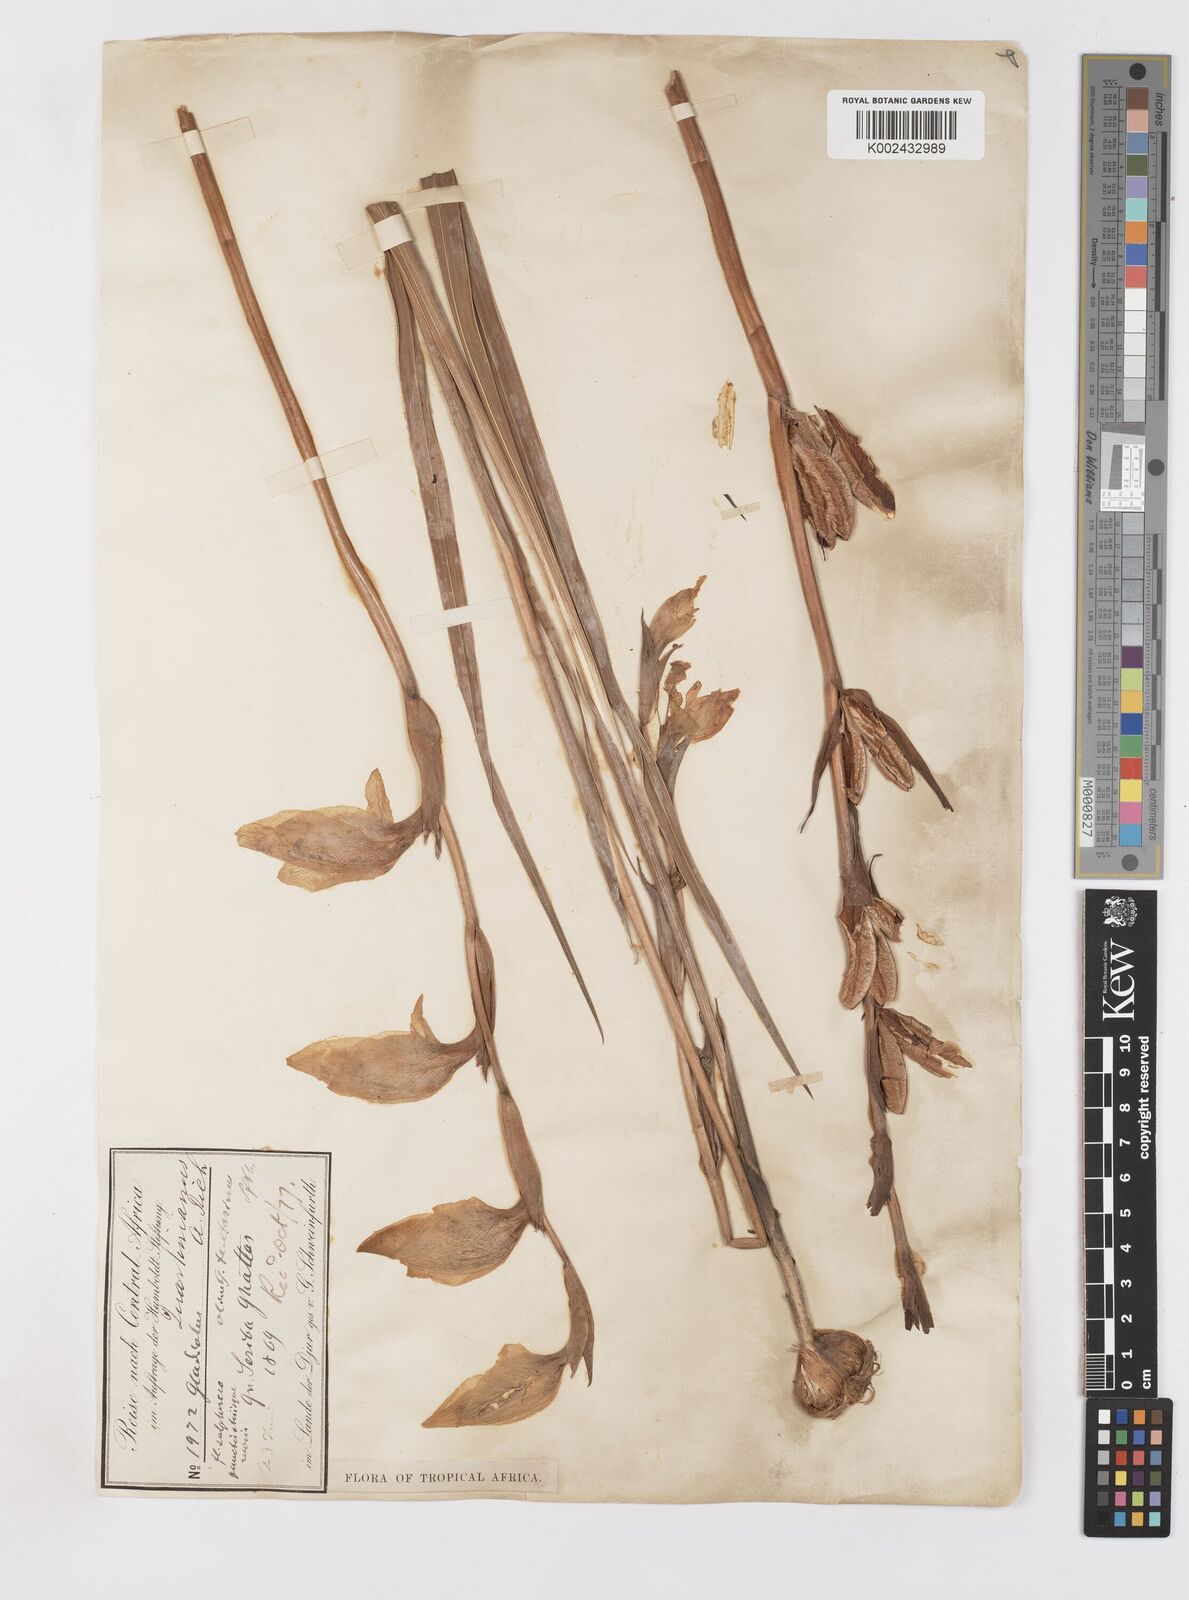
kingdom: Plantae
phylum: Tracheophyta
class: Liliopsida
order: Asparagales
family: Iridaceae
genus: Gladiolus
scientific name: Gladiolus dalenii
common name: Cornflag
